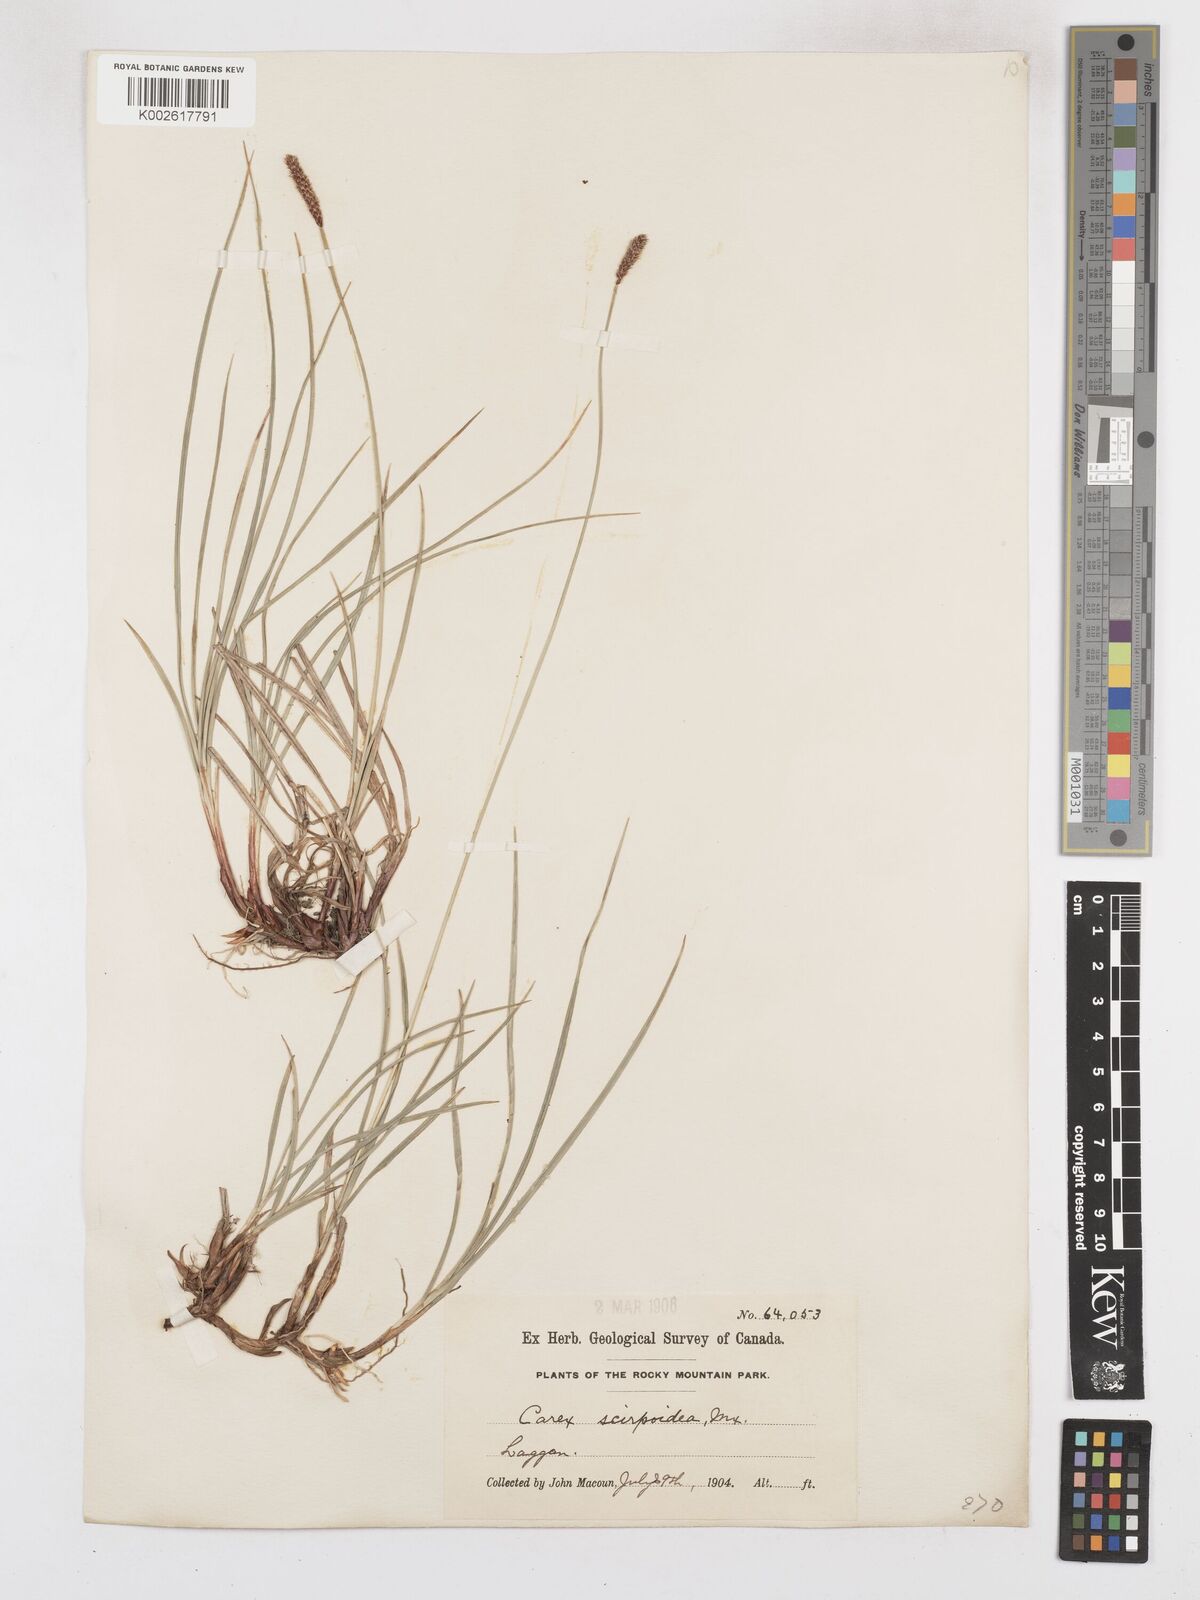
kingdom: Plantae
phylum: Tracheophyta
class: Liliopsida
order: Poales
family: Cyperaceae
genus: Carex
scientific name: Carex scirpoidea
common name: Canada single-spike sedge
